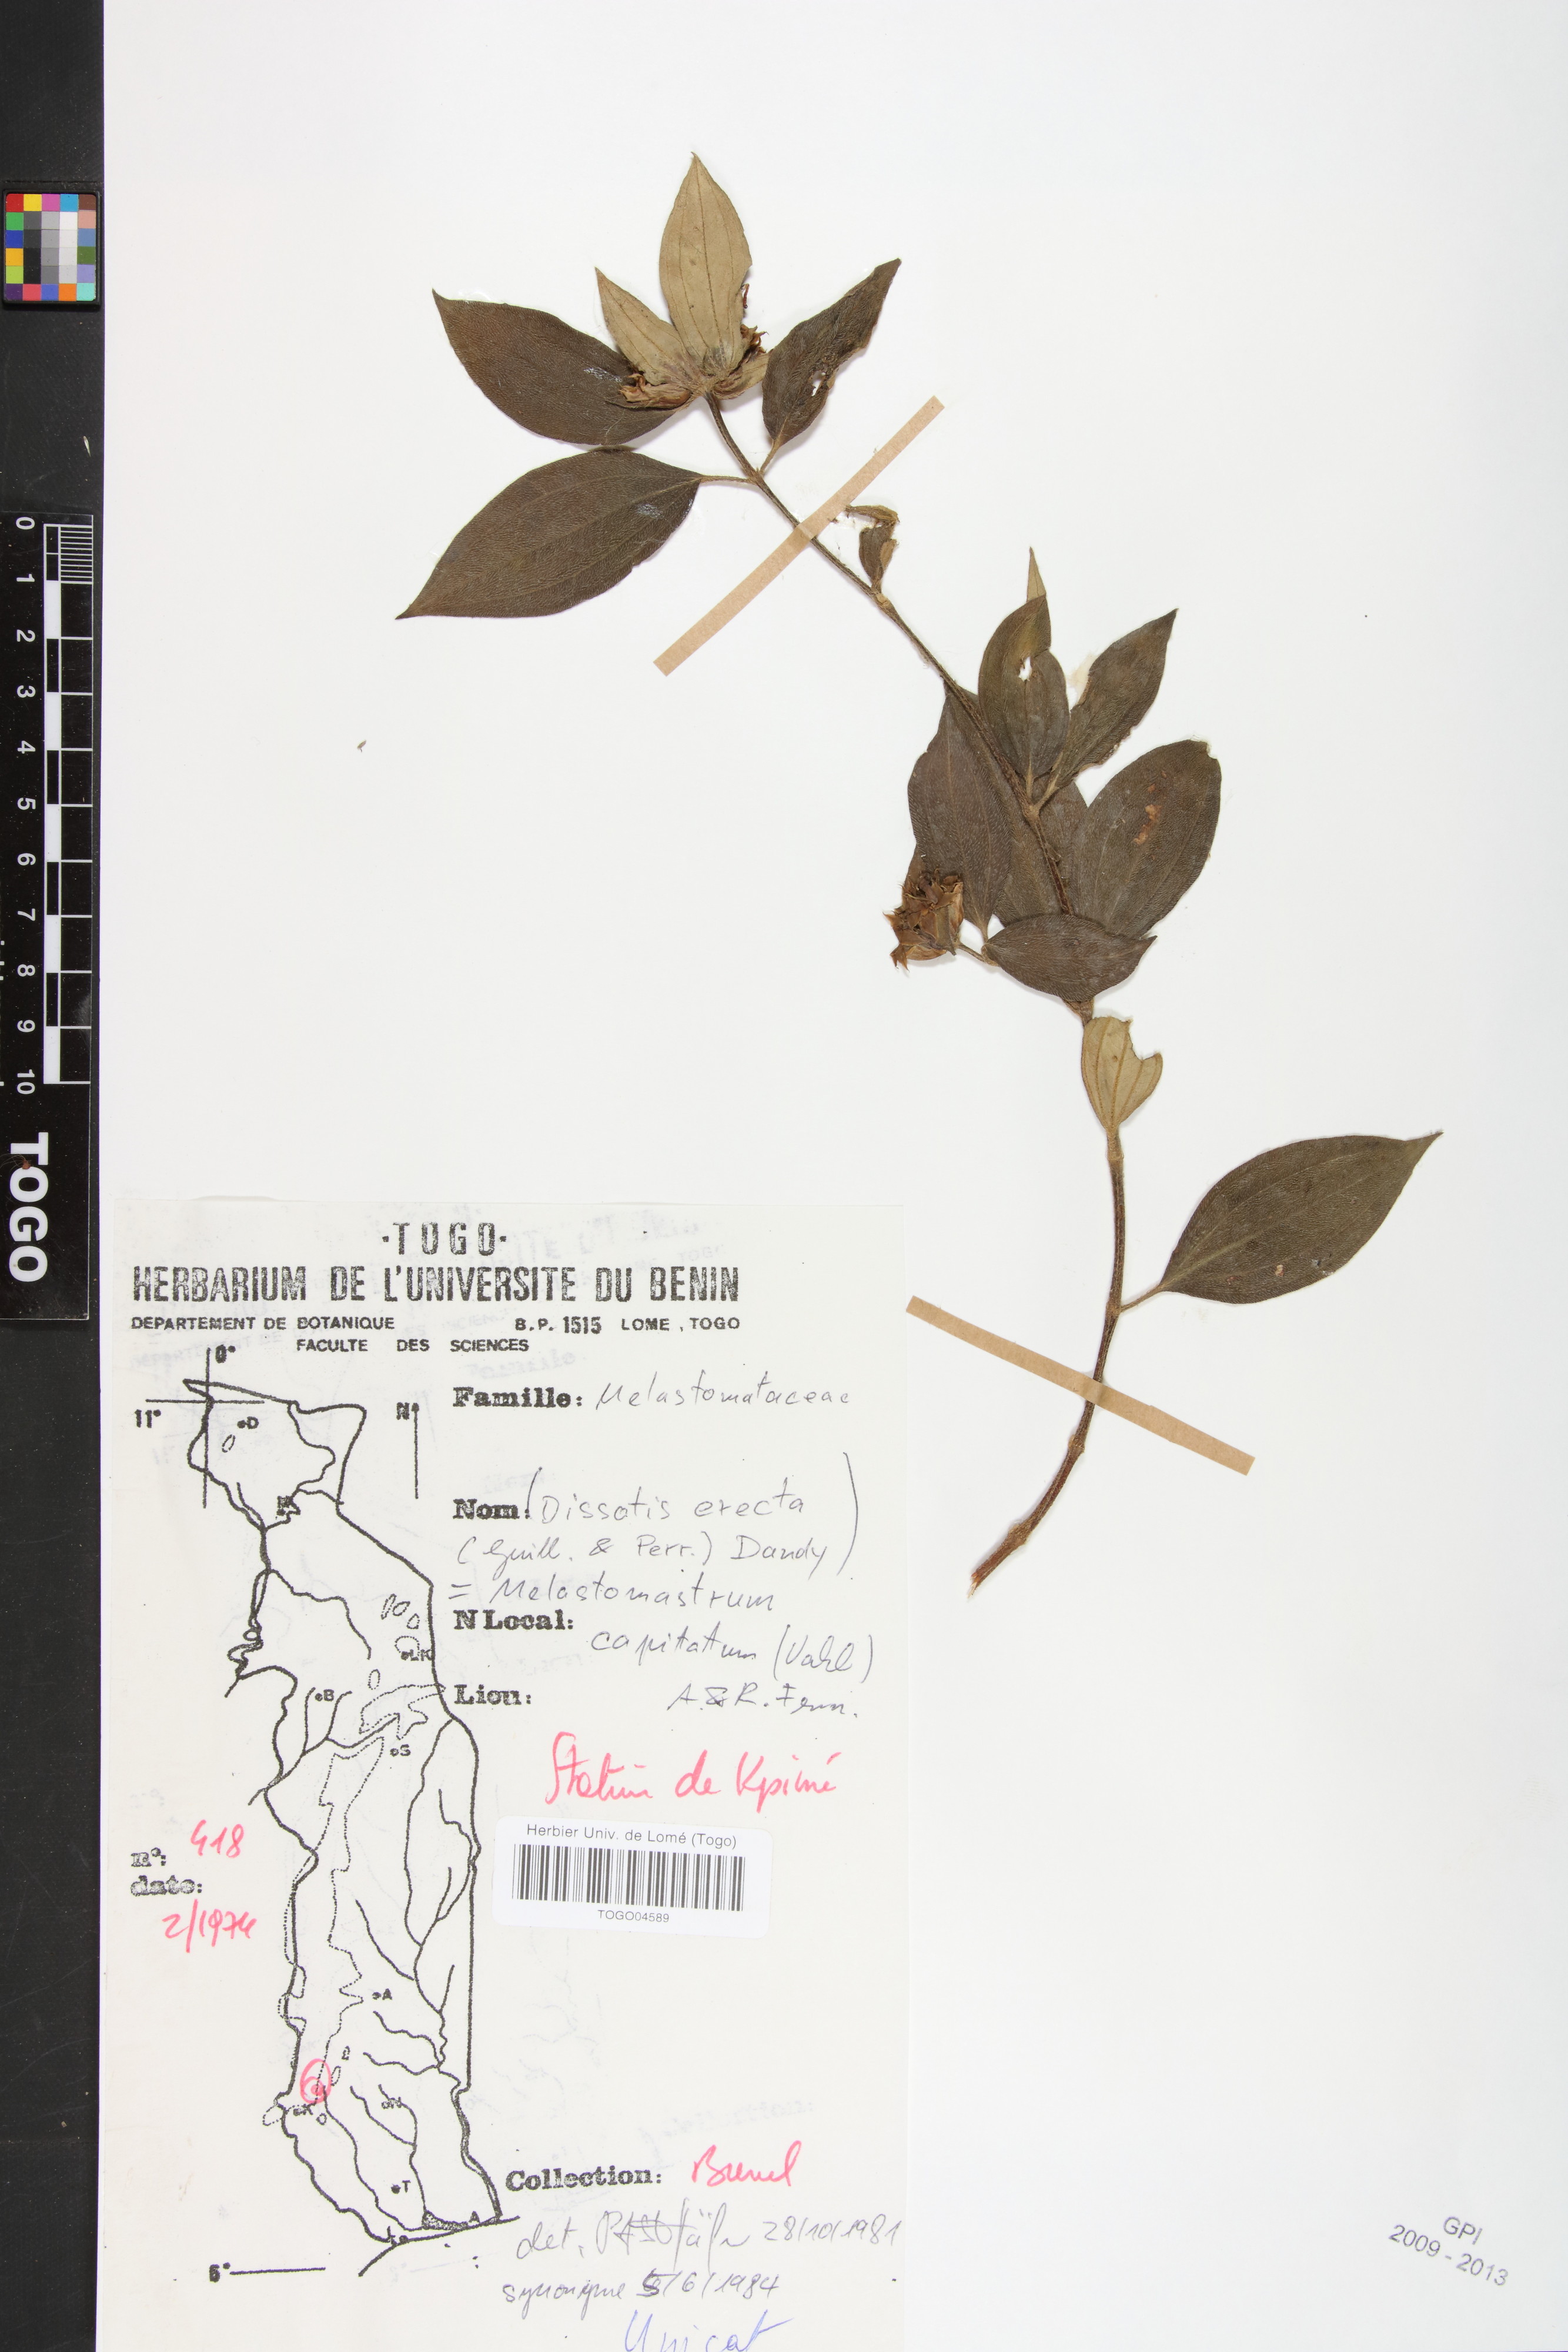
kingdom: Plantae
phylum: Tracheophyta
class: Magnoliopsida
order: Myrtales
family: Melastomataceae
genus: Melastomastrum
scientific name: Melastomastrum capitatum
